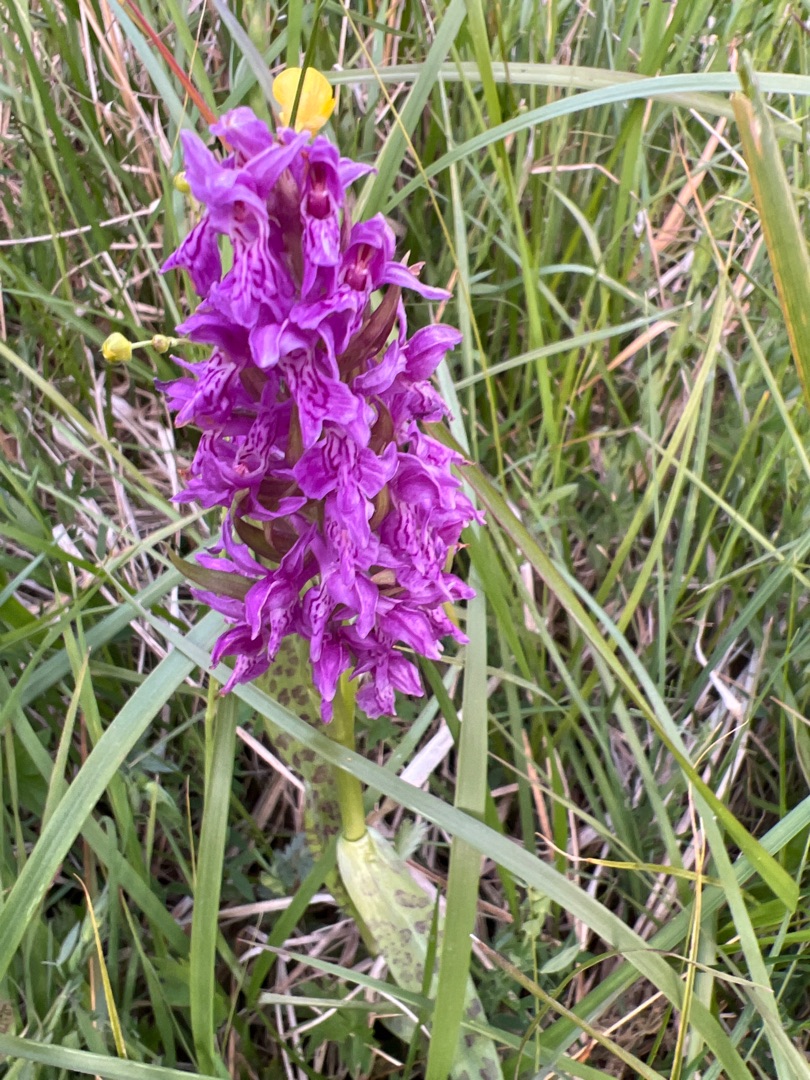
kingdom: Plantae
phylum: Tracheophyta
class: Liliopsida
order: Asparagales
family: Orchidaceae
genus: Dactylorhiza
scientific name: Dactylorhiza majalis
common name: Maj-gøgeurt
